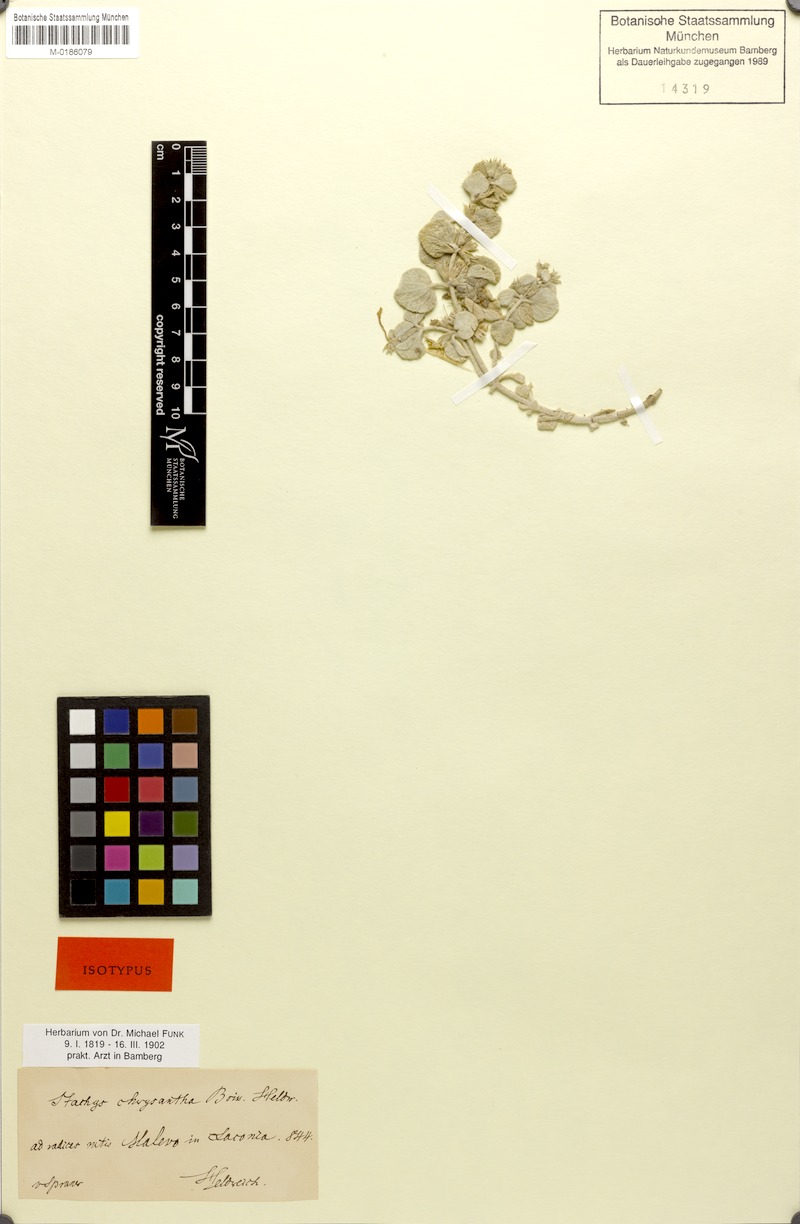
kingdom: Plantae
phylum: Tracheophyta
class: Magnoliopsida
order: Lamiales
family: Lamiaceae
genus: Stachys
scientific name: Stachys chrysantha
